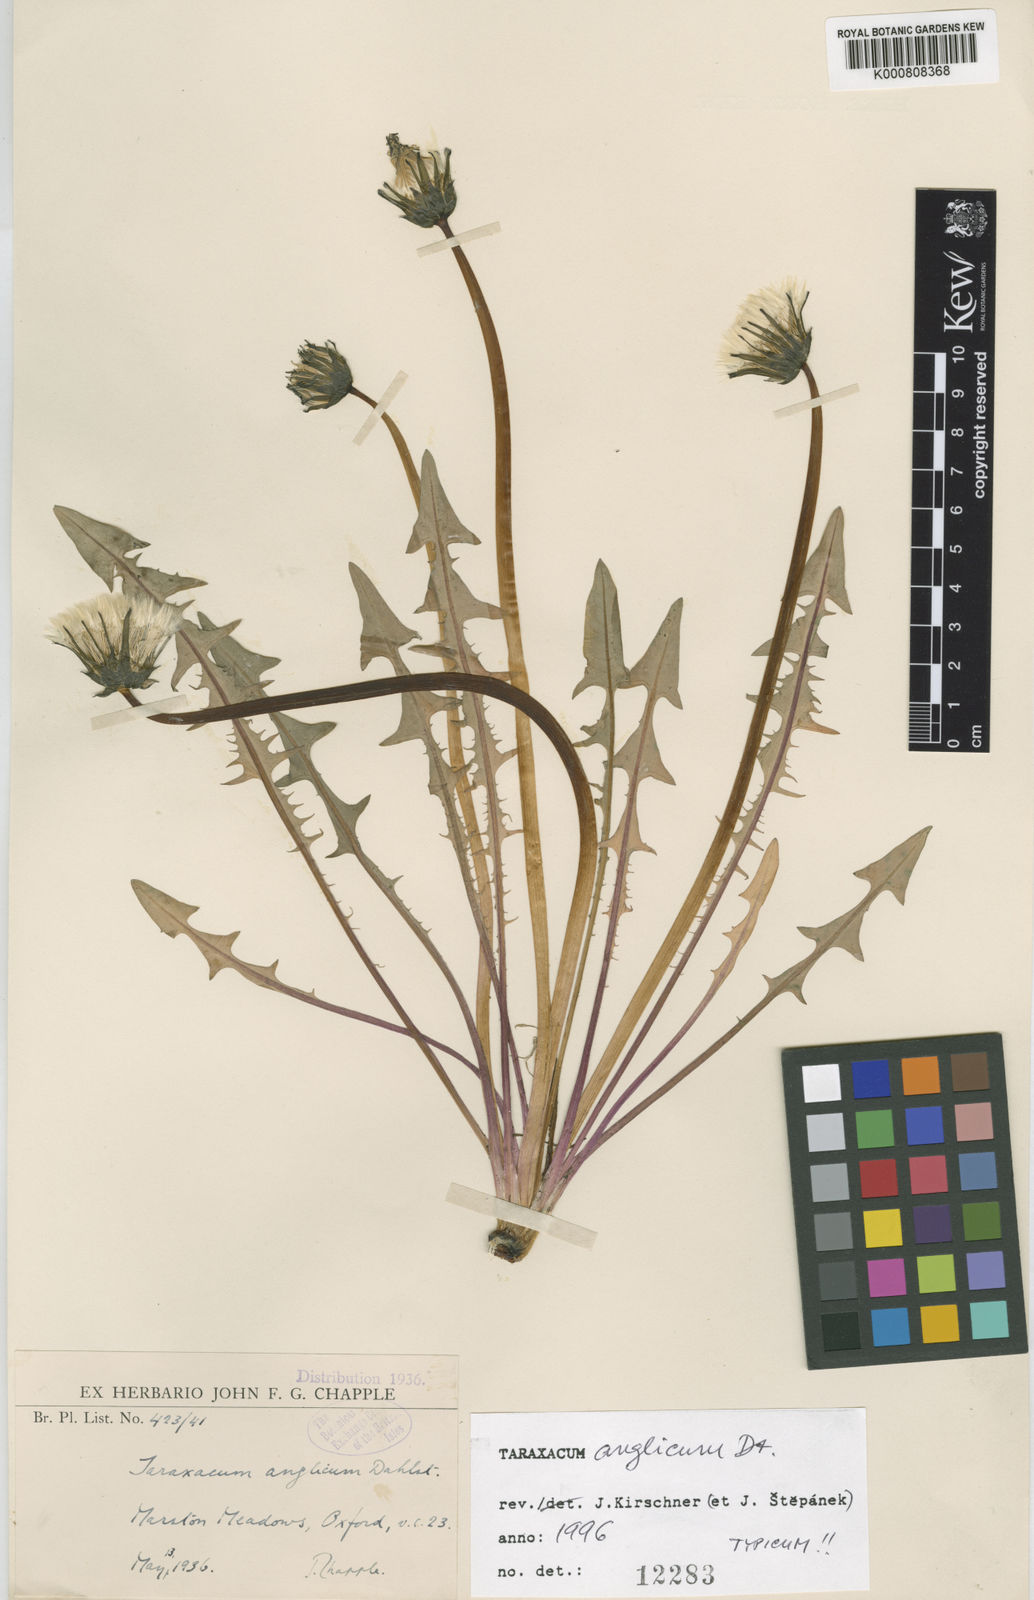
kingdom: Plantae
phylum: Tracheophyta
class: Magnoliopsida
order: Asterales
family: Asteraceae
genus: Taraxacum
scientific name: Taraxacum anglicum
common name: English dandelion
